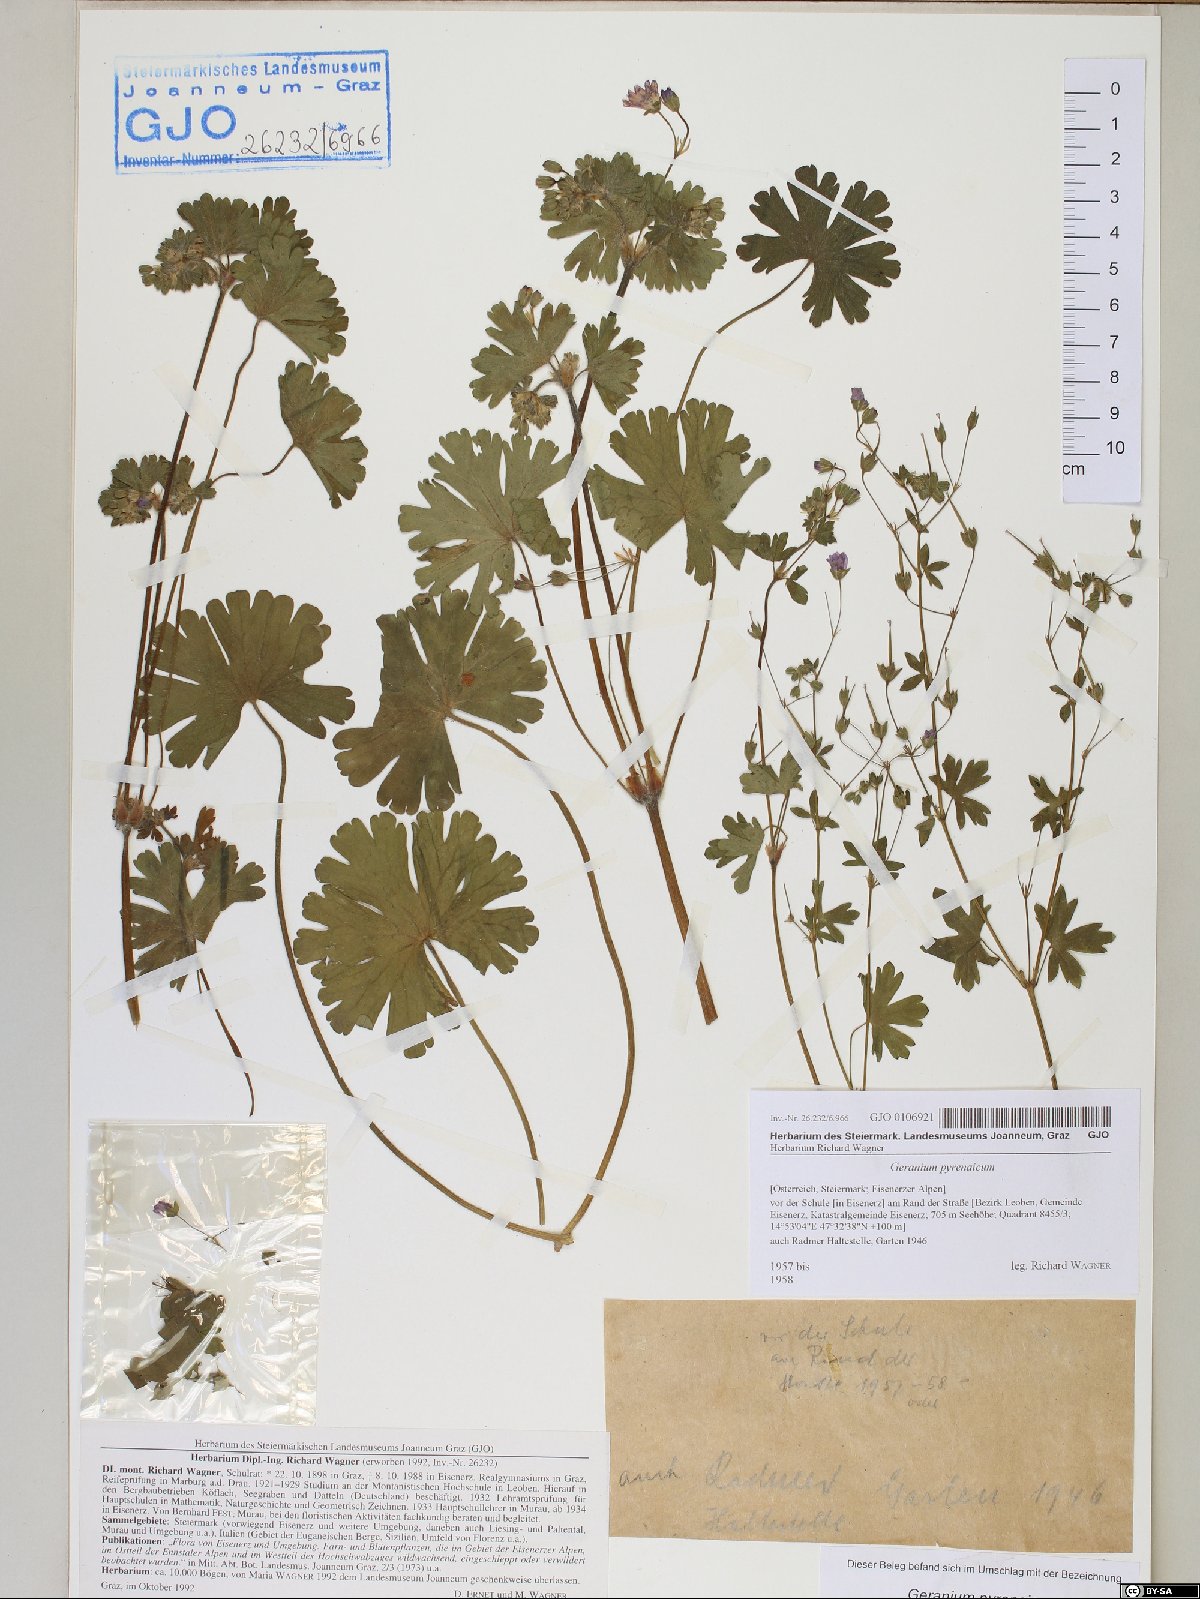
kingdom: Plantae
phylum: Tracheophyta
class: Magnoliopsida
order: Geraniales
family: Geraniaceae
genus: Geranium
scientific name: Geranium pyrenaicum
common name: Hedgerow crane's-bill
